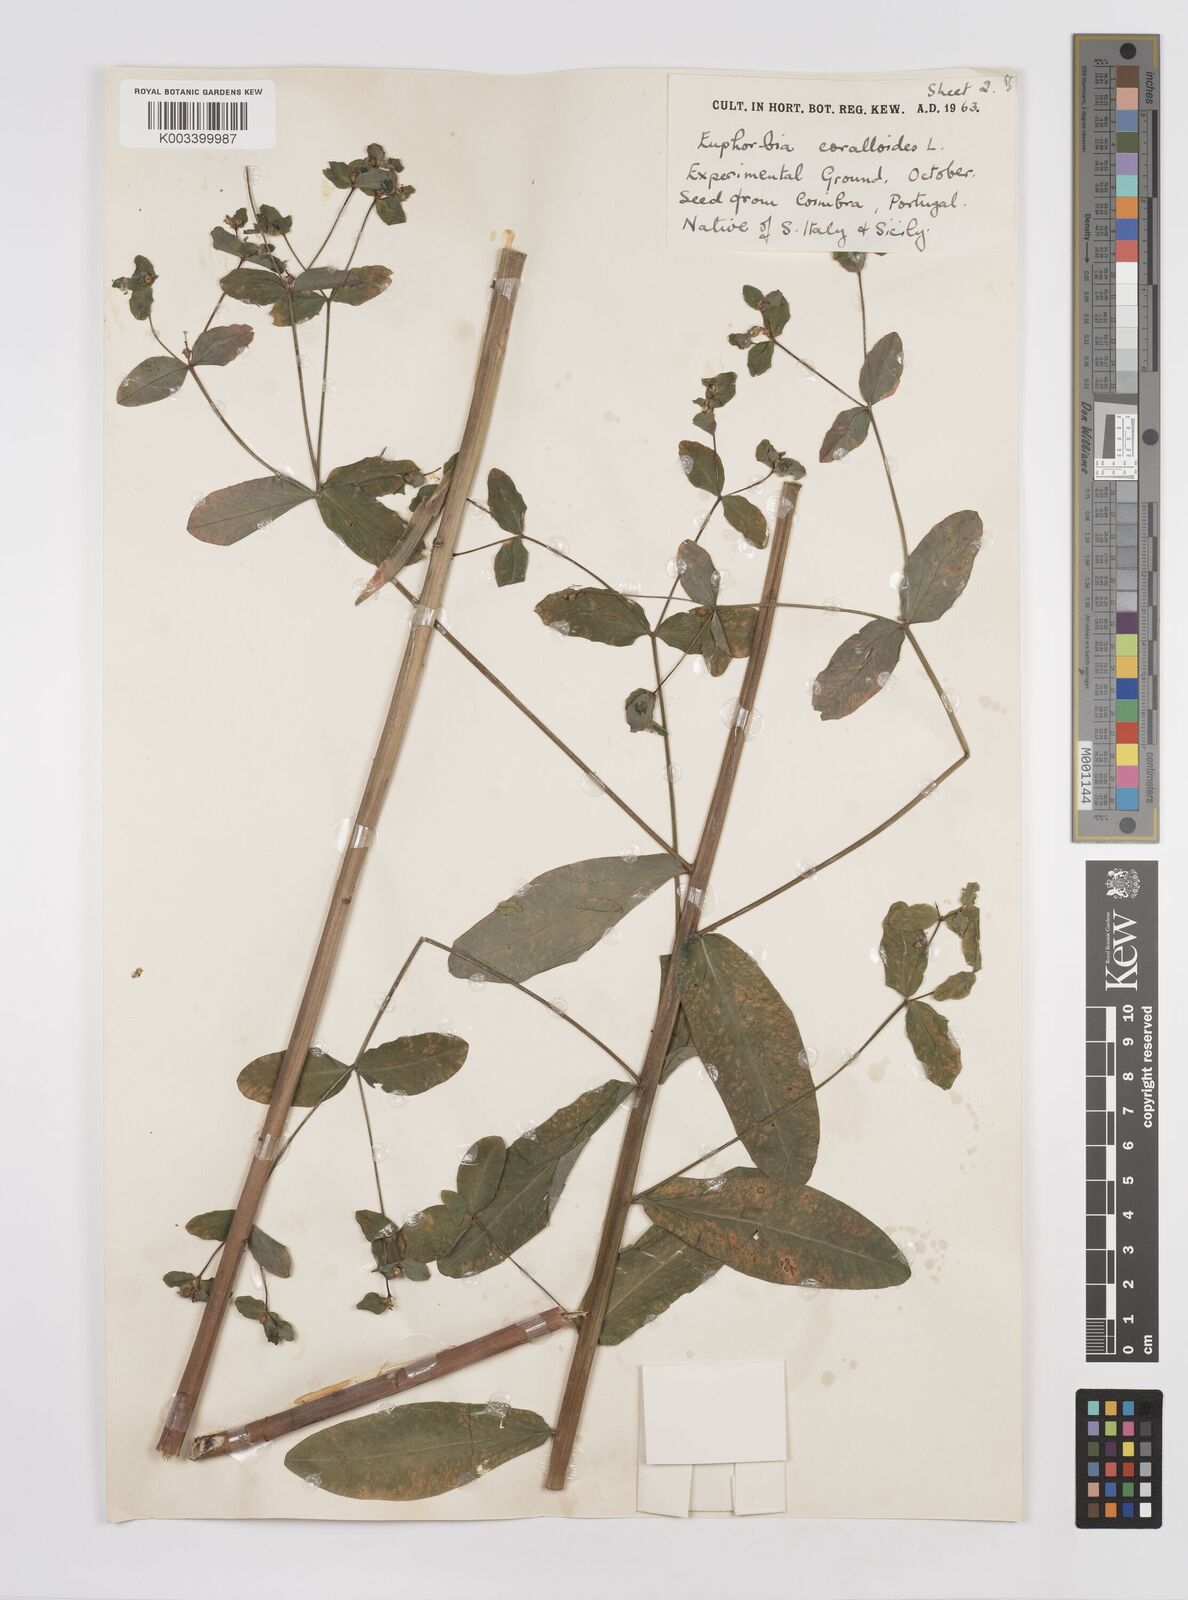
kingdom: Plantae
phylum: Tracheophyta
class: Magnoliopsida
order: Malpighiales
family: Euphorbiaceae
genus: Euphorbia
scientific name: Euphorbia corallioides
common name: Coral spurge
